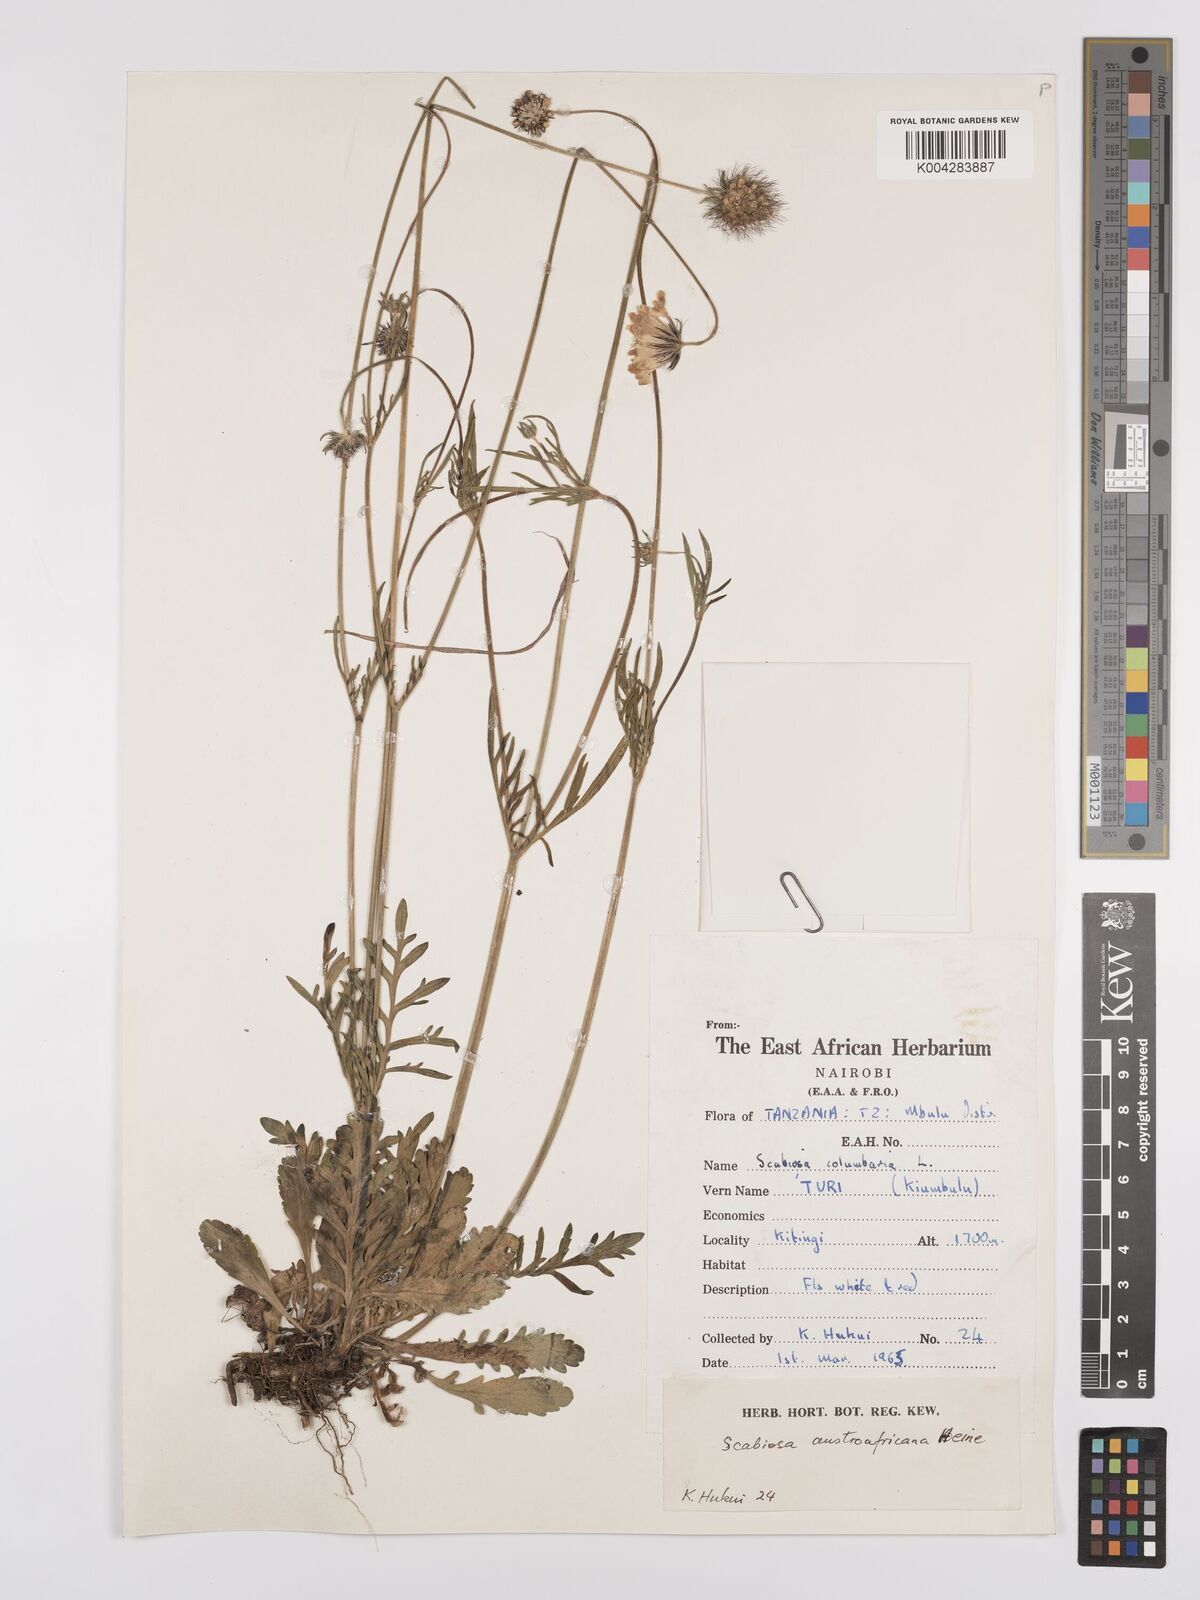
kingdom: Plantae
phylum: Tracheophyta
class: Magnoliopsida
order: Dipsacales
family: Caprifoliaceae
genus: Scabiosa
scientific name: Scabiosa austroafricana
